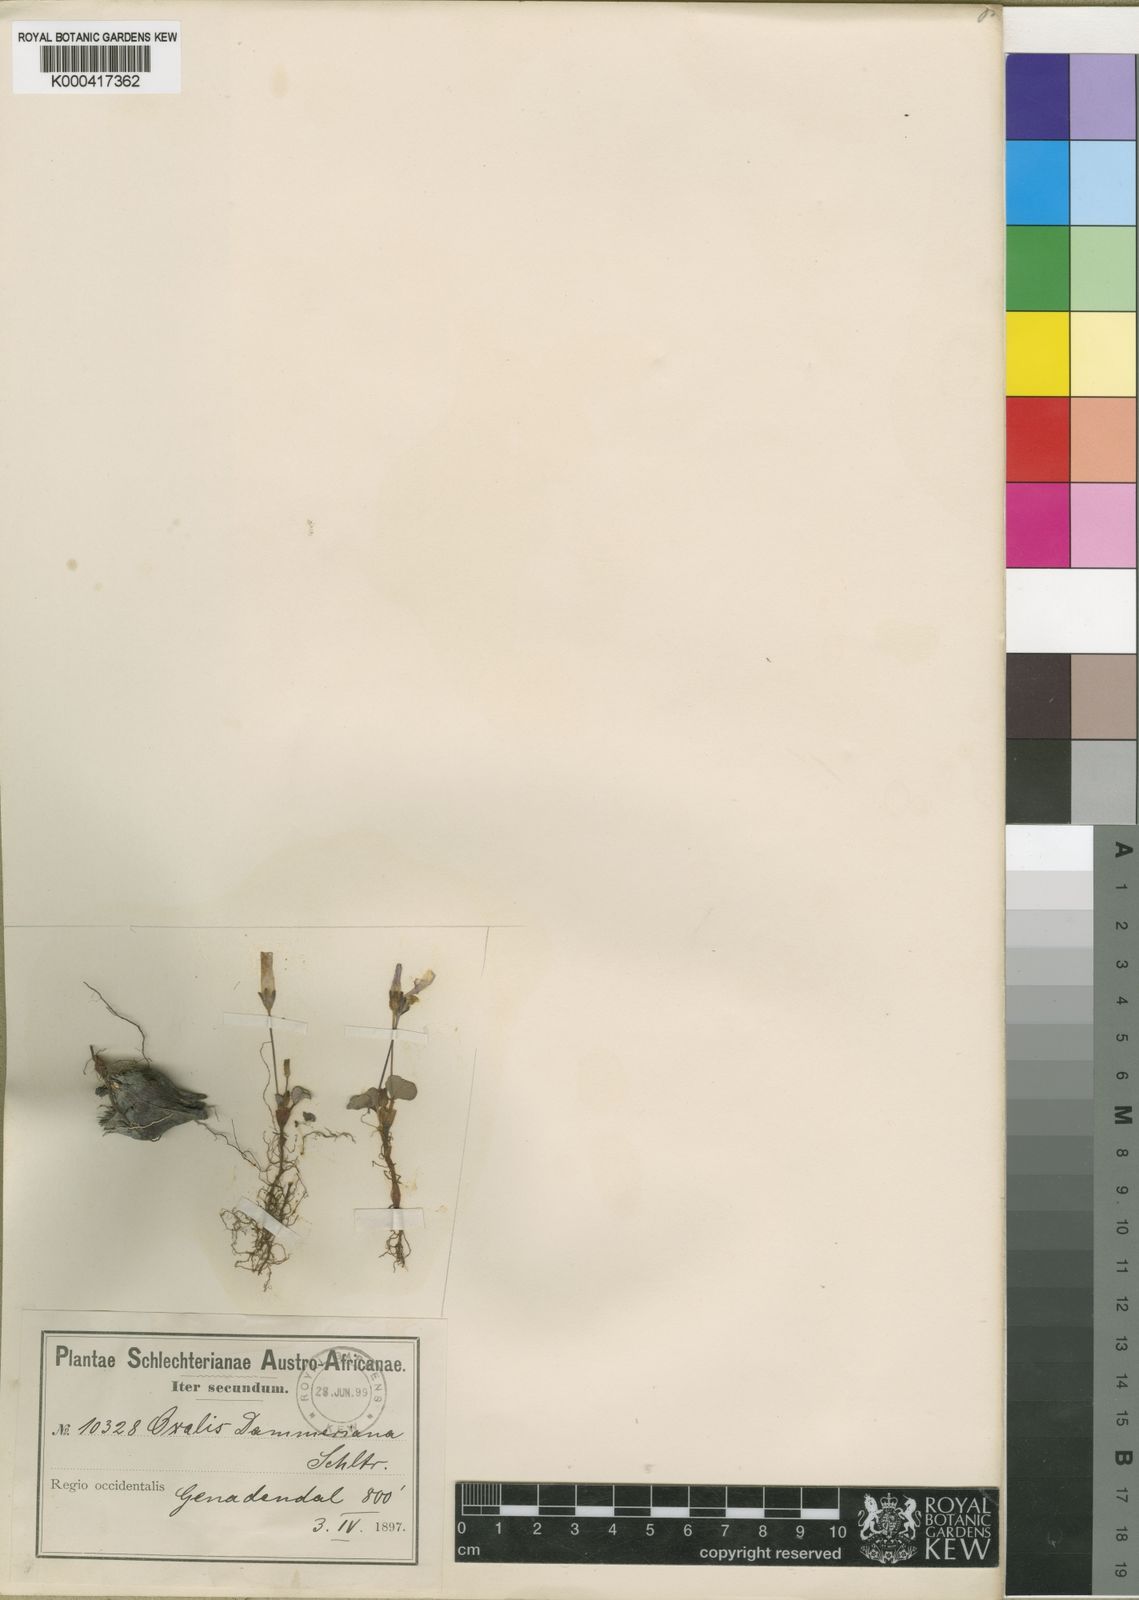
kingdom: Plantae
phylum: Tracheophyta
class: Magnoliopsida
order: Oxalidales
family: Oxalidaceae
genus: Oxalis
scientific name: Oxalis depressa
